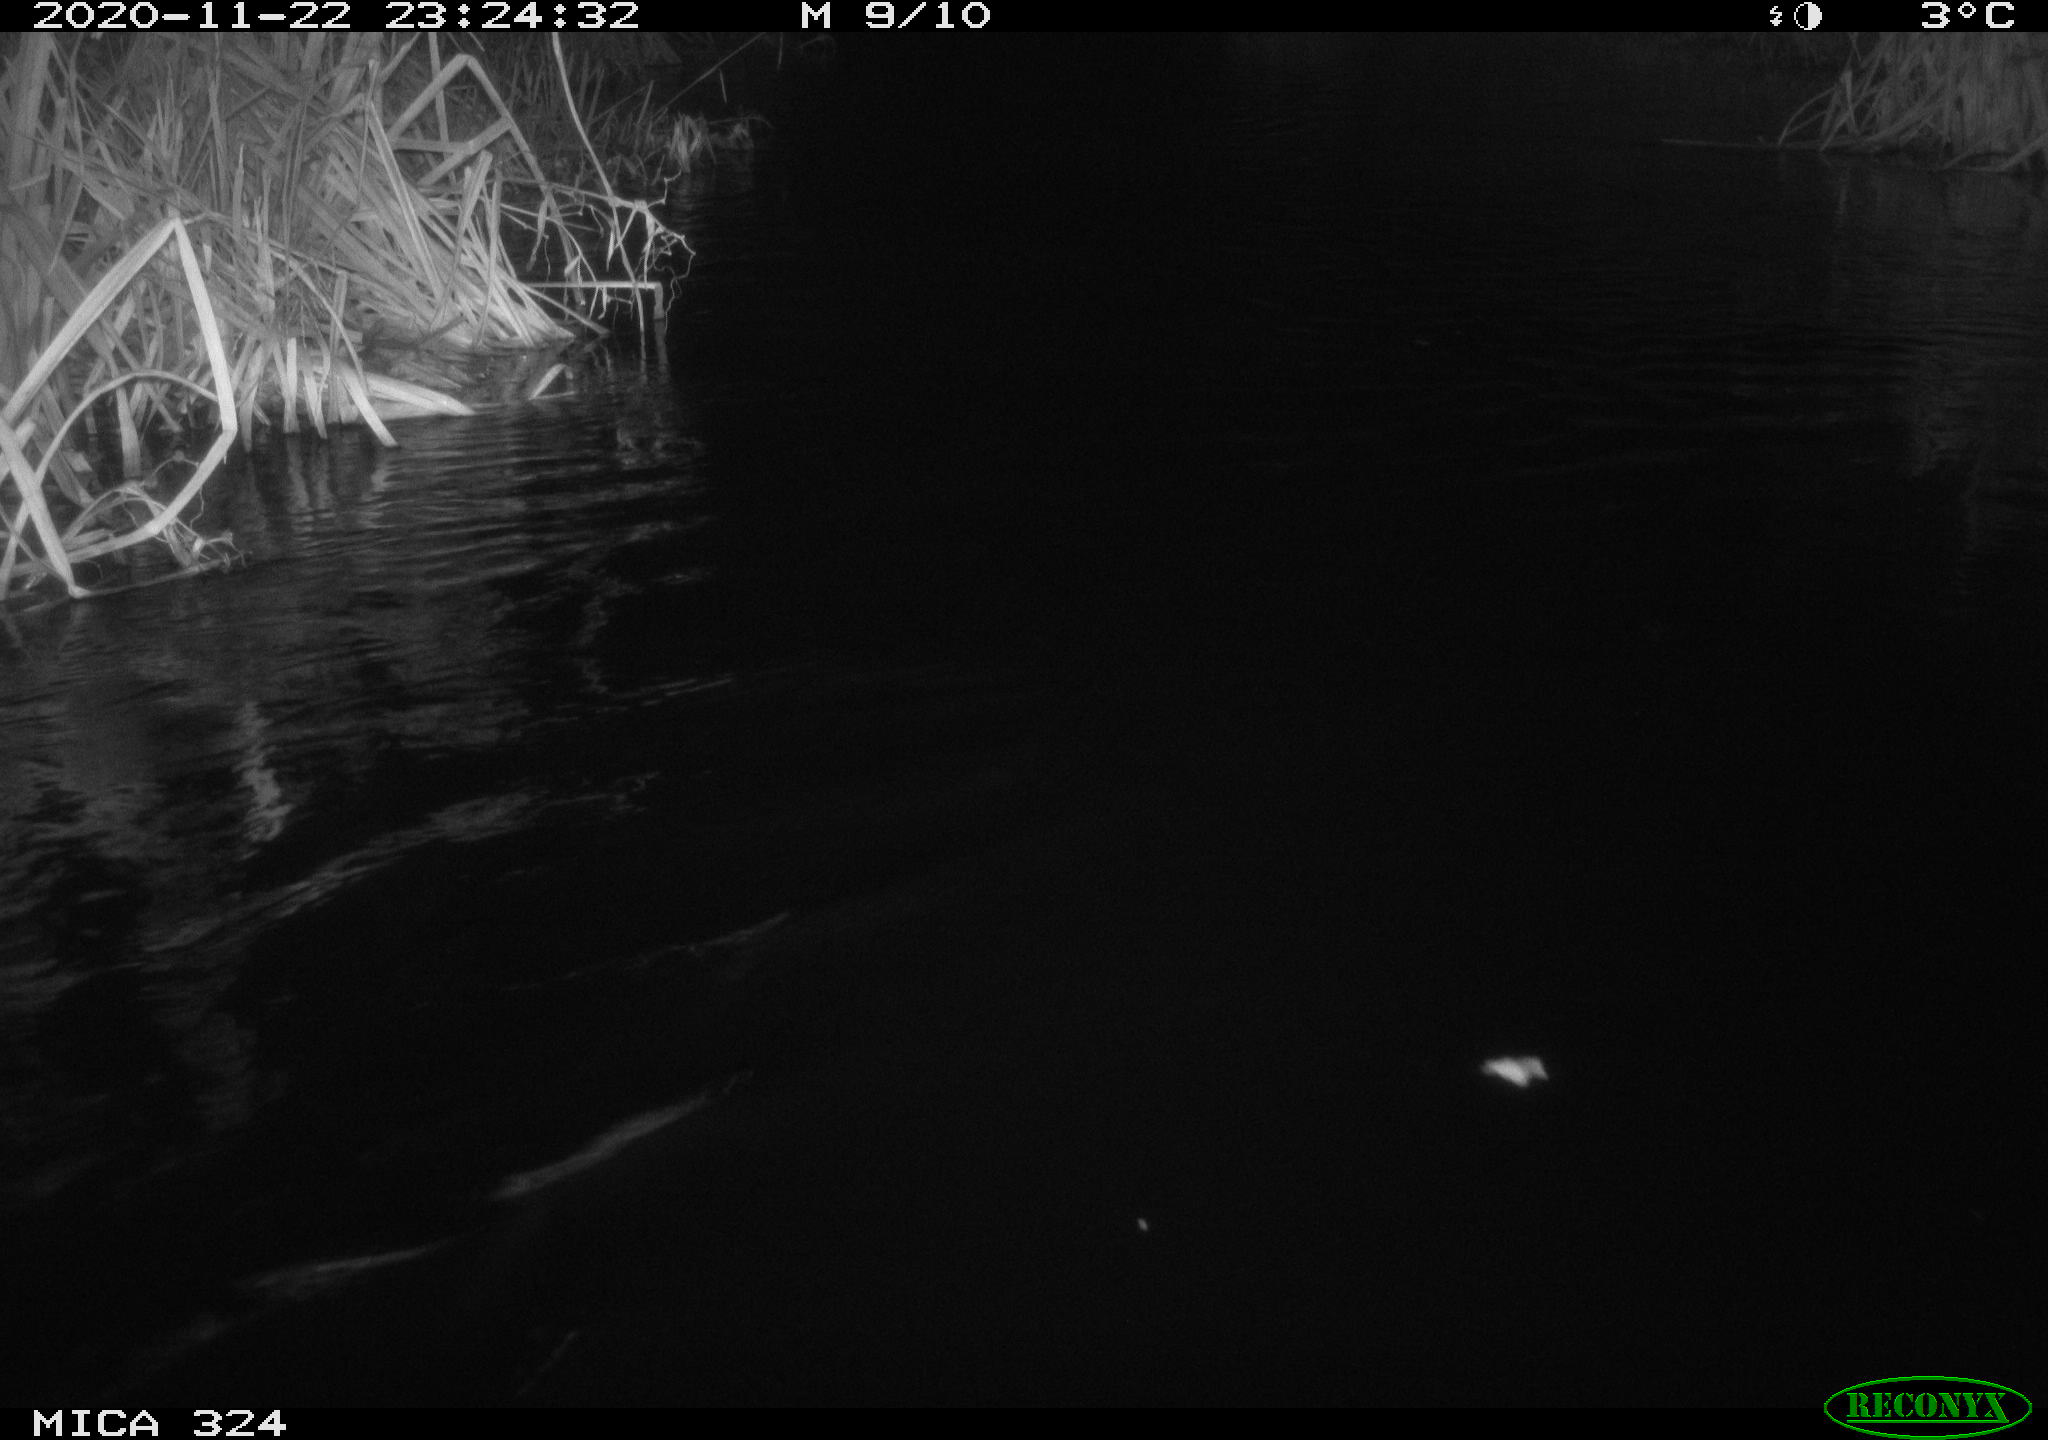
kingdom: Animalia
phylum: Chordata
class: Mammalia
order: Rodentia
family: Cricetidae
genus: Ondatra
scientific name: Ondatra zibethicus
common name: Muskrat
